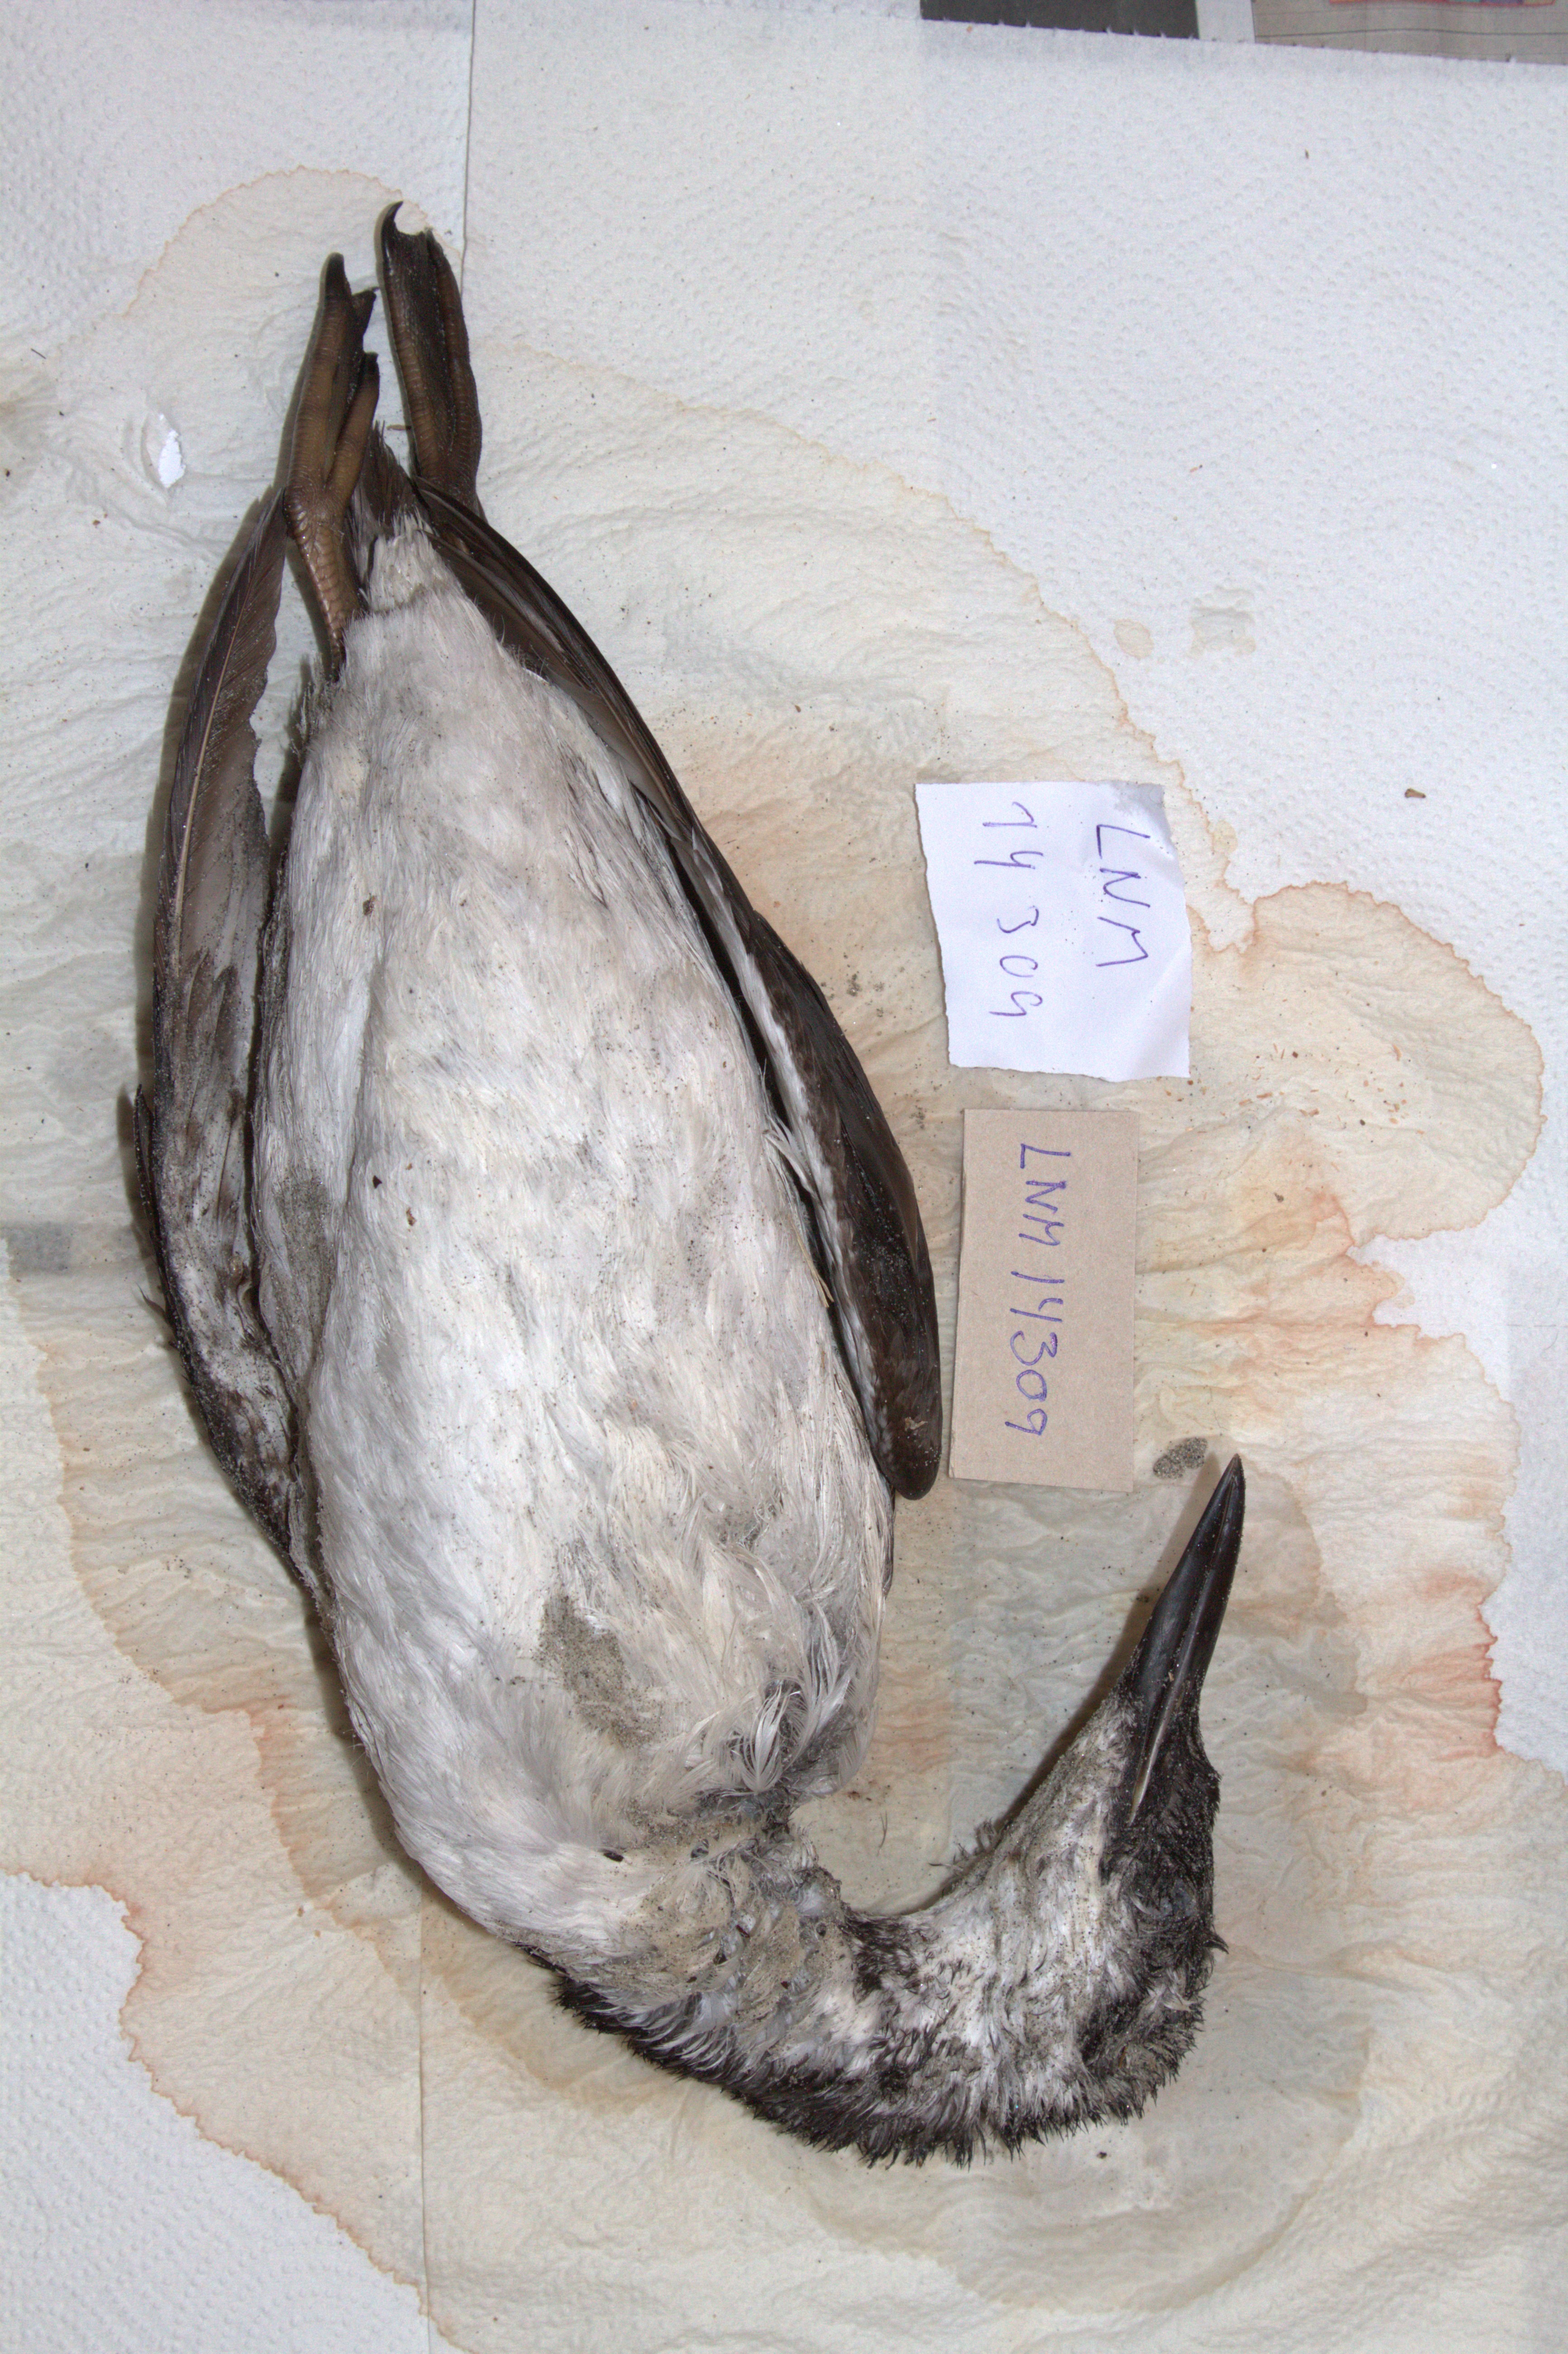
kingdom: Animalia
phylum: Chordata
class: Aves
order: Charadriiformes
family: Alcidae
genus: Uria
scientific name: Uria aalge
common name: Common murre
